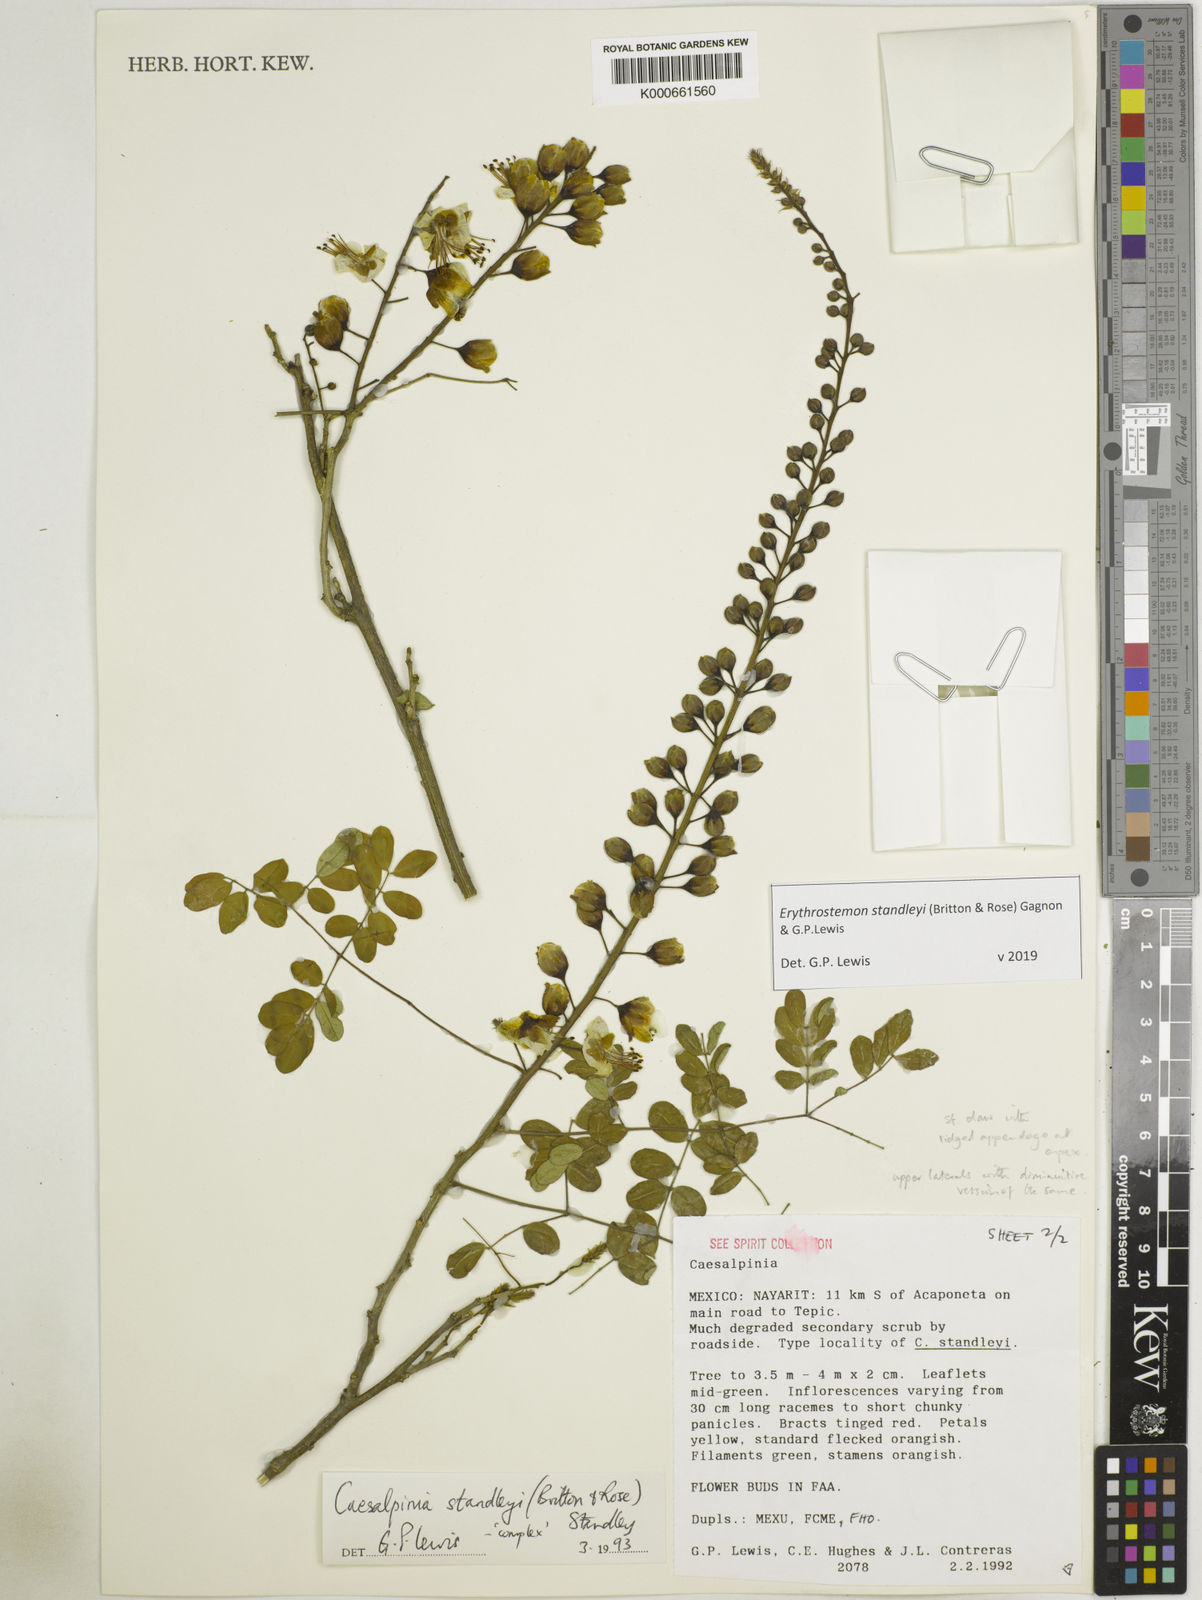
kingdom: Plantae
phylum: Tracheophyta
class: Magnoliopsida
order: Fabales
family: Fabaceae
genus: Erythrostemon
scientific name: Erythrostemon standleyi
